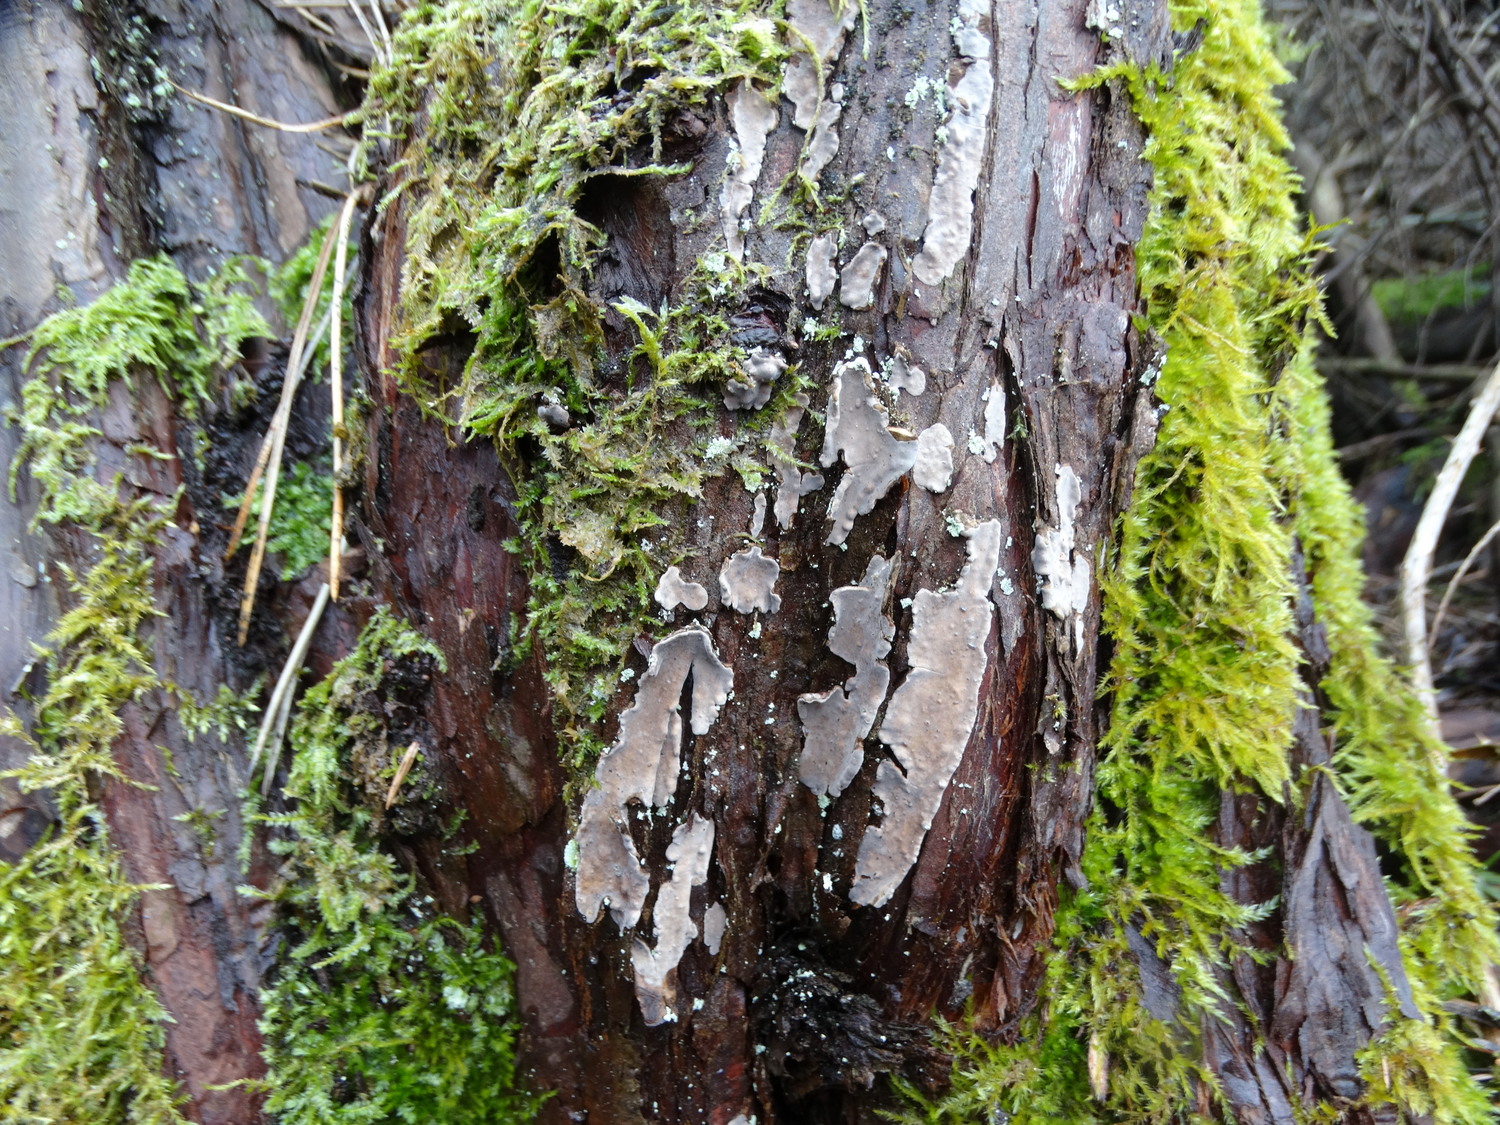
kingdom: Fungi
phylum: Basidiomycota
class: Agaricomycetes
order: Russulales
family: Echinodontiaceae
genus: Amylostereum
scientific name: Amylostereum laevigatum
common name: ene-lædersvamp
